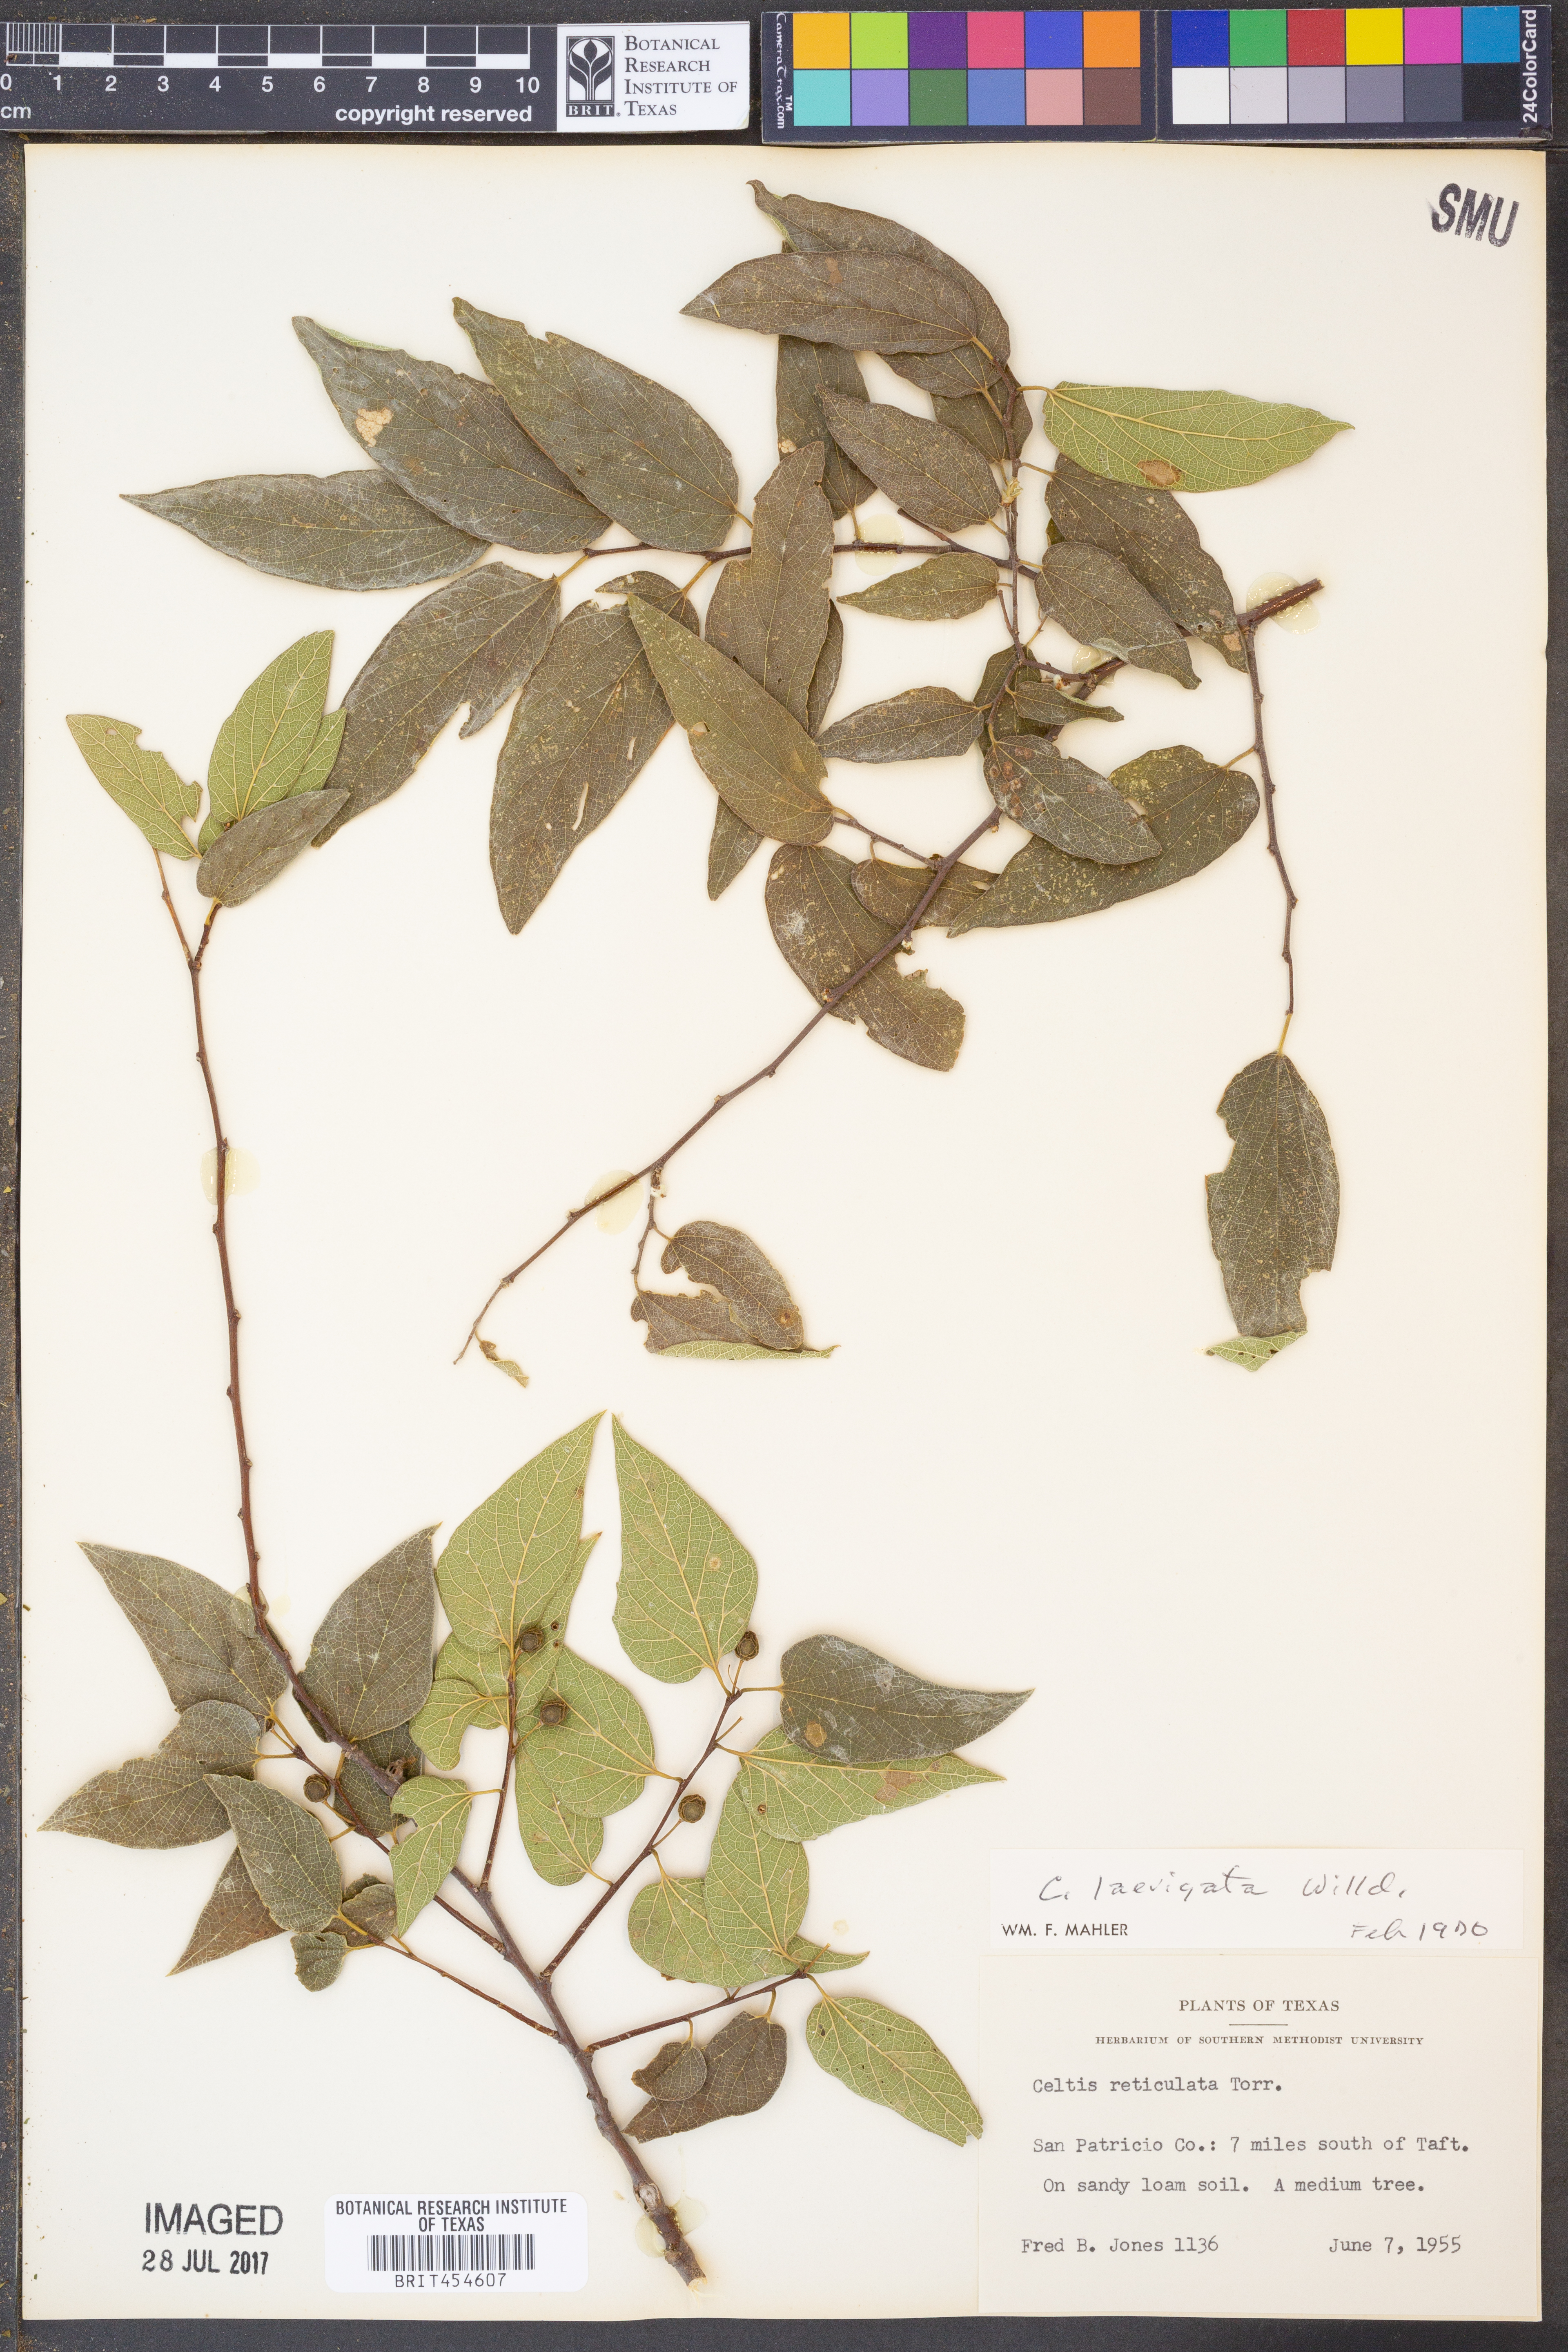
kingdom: Plantae
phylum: Tracheophyta
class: Magnoliopsida
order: Rosales
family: Cannabaceae
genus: Celtis
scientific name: Celtis laevigata
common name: Sugarberry
